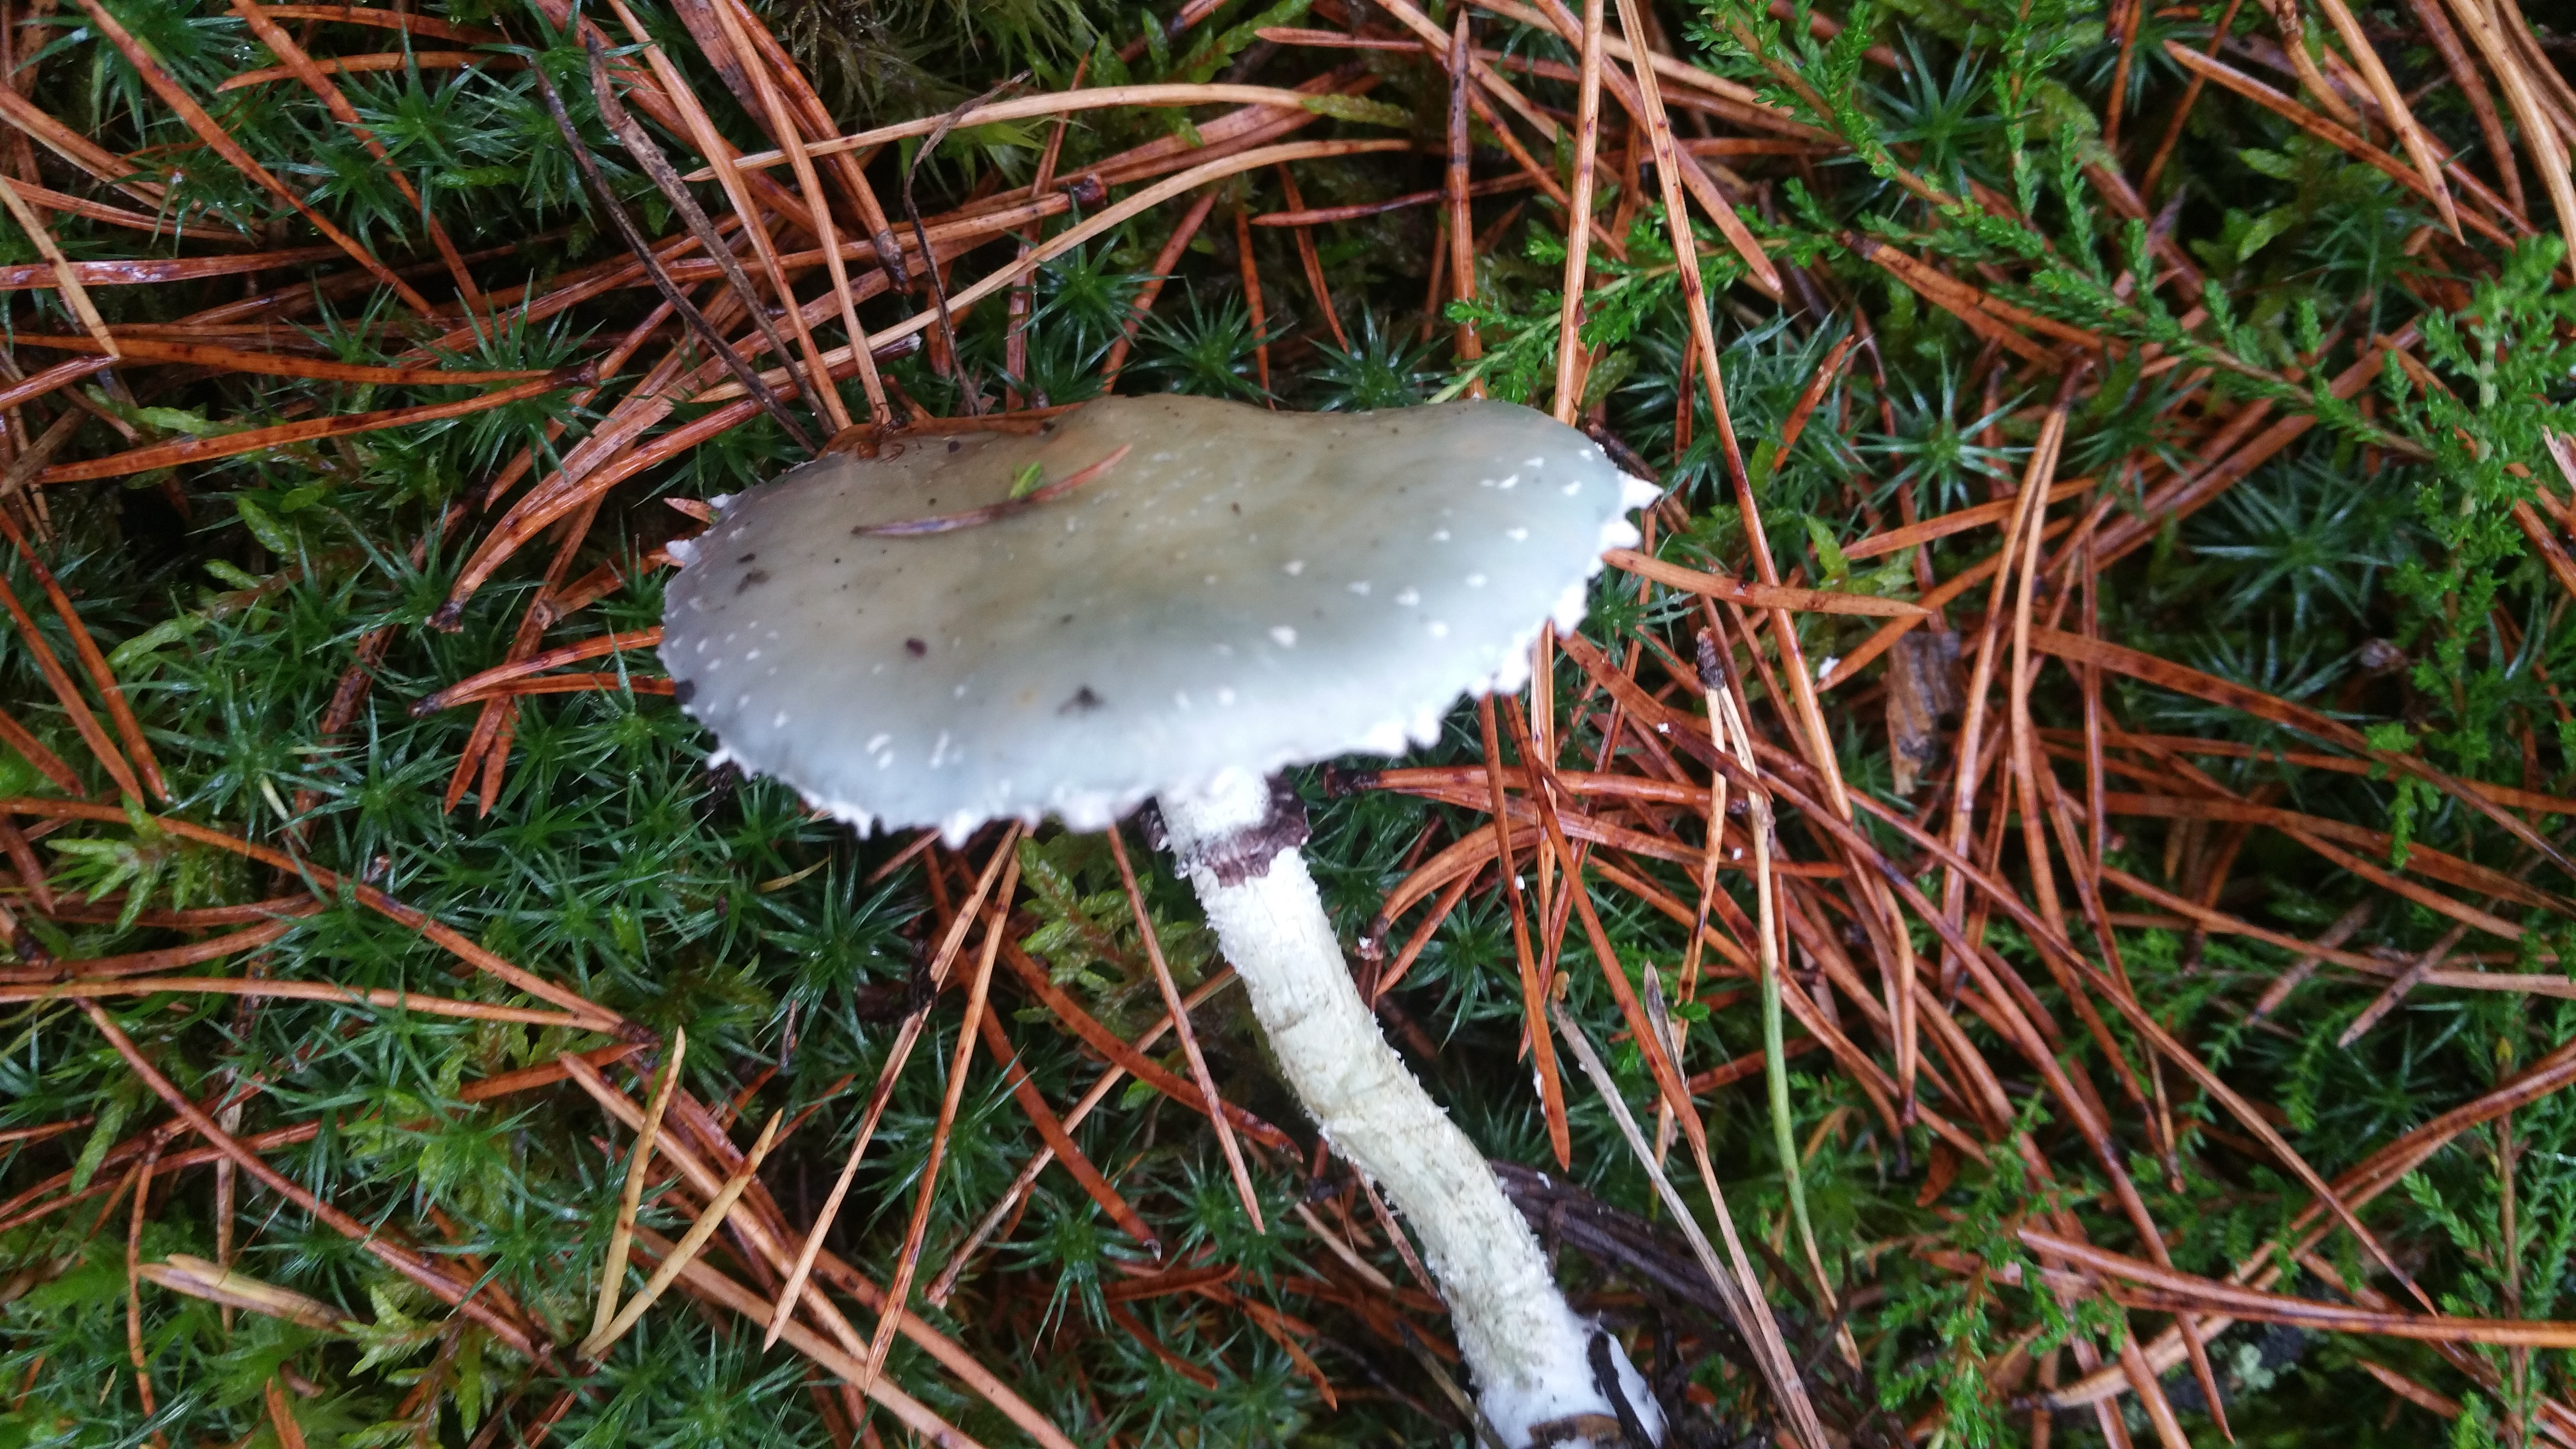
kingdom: Fungi
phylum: Basidiomycota
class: Agaricomycetes
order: Agaricales
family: Strophariaceae
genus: Stropharia
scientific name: Stropharia aeruginosa
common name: Verdigris roundhead
